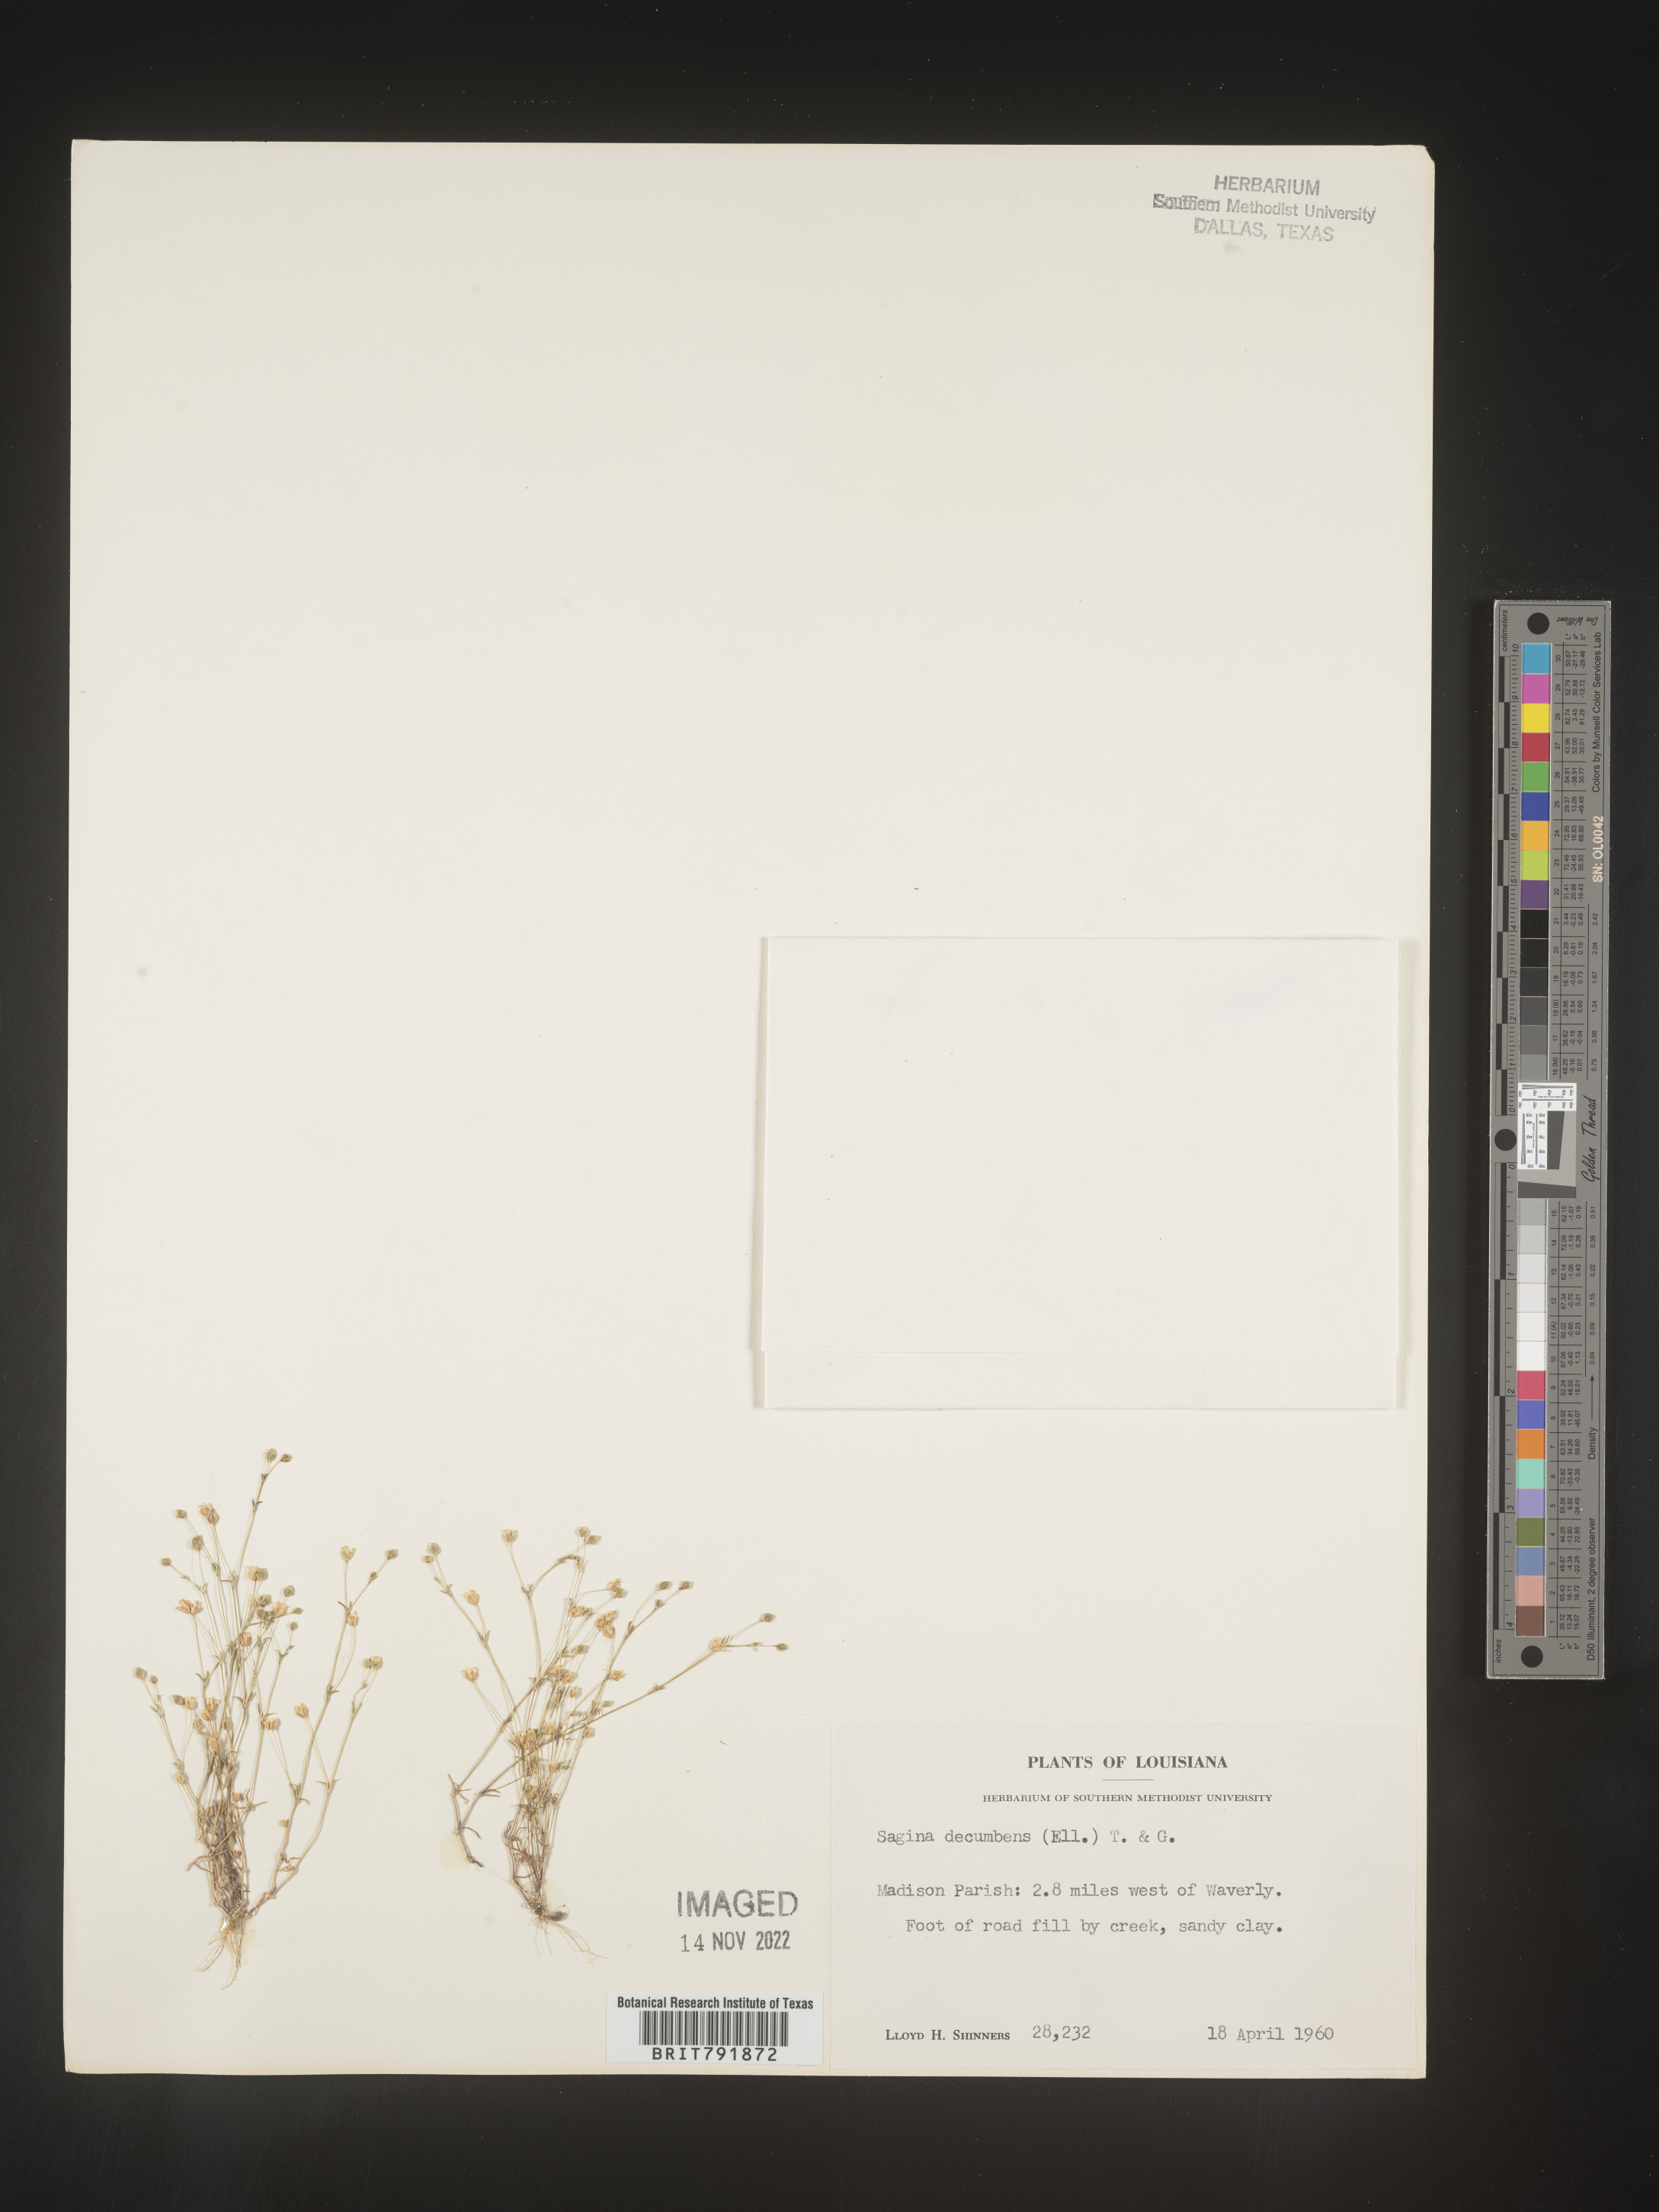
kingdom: Plantae
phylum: Tracheophyta
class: Magnoliopsida
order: Caryophyllales
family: Caryophyllaceae
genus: Sagina
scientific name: Sagina decumbens
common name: Decumbent pearlwort
